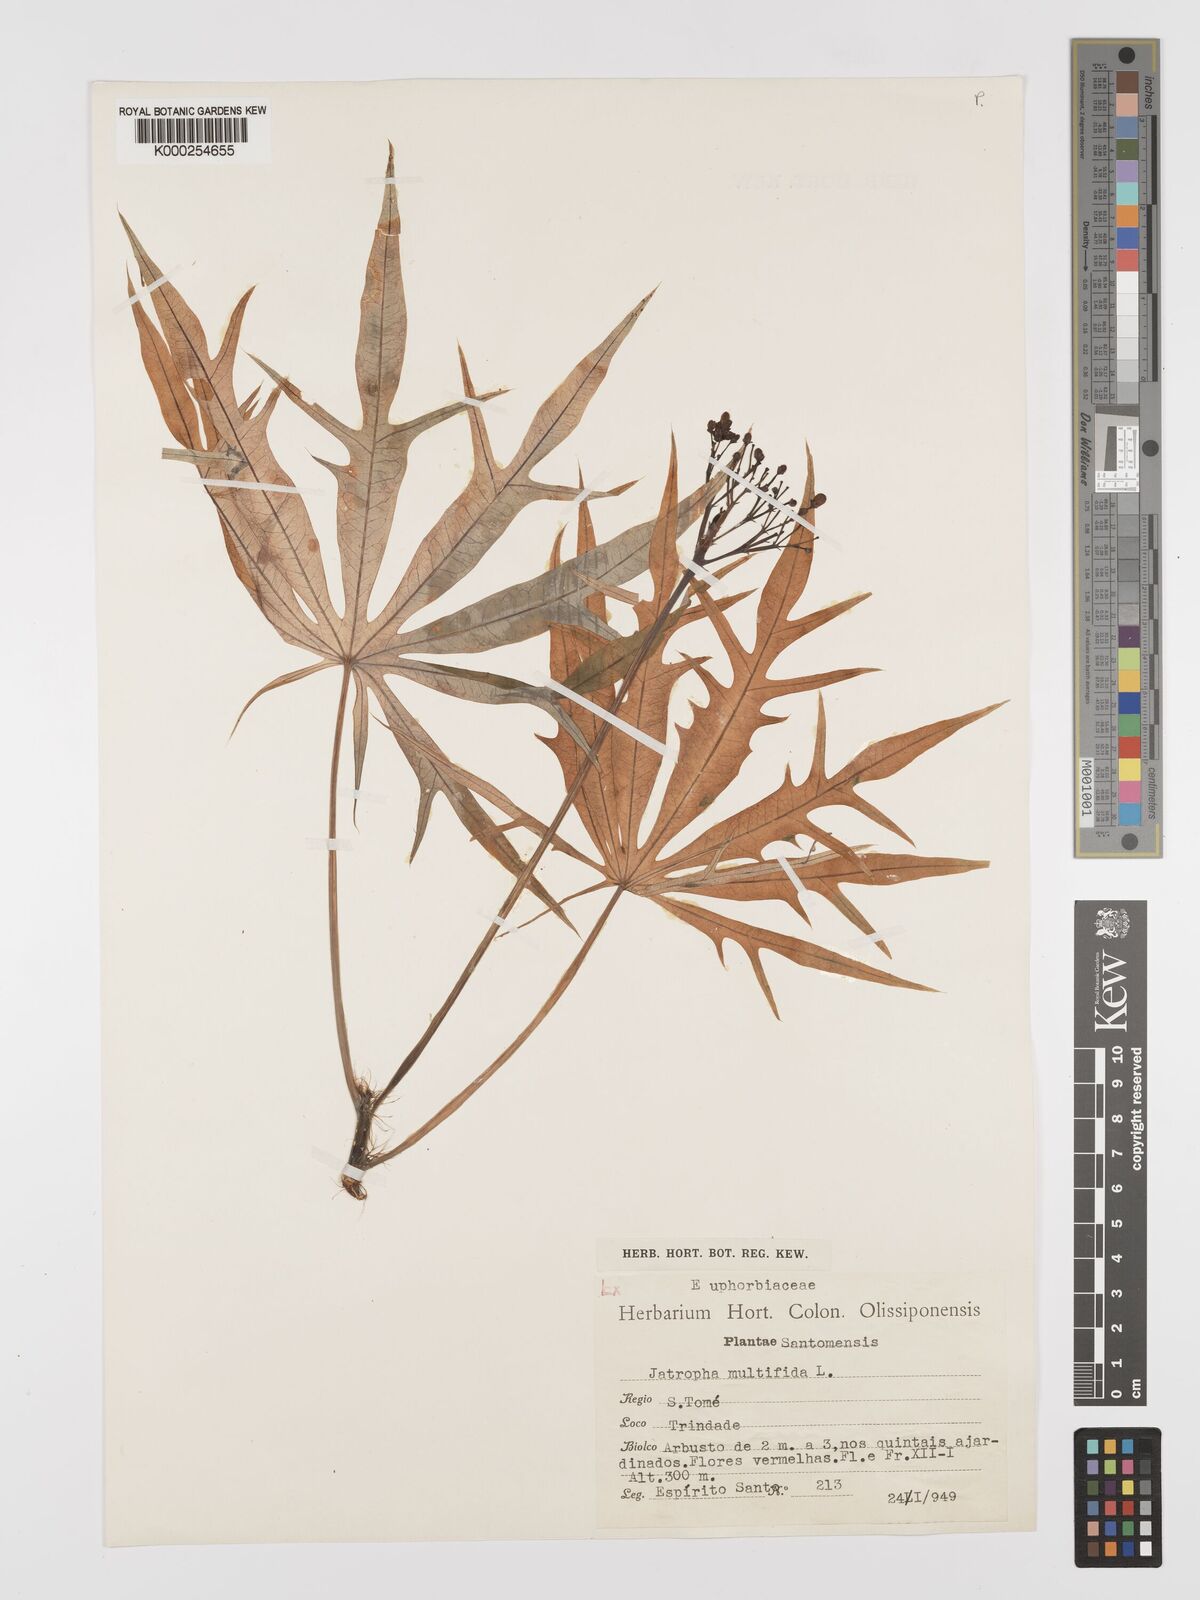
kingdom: Plantae
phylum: Tracheophyta
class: Magnoliopsida
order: Malpighiales
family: Euphorbiaceae
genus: Jatropha
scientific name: Jatropha multifida
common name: Coralbush
